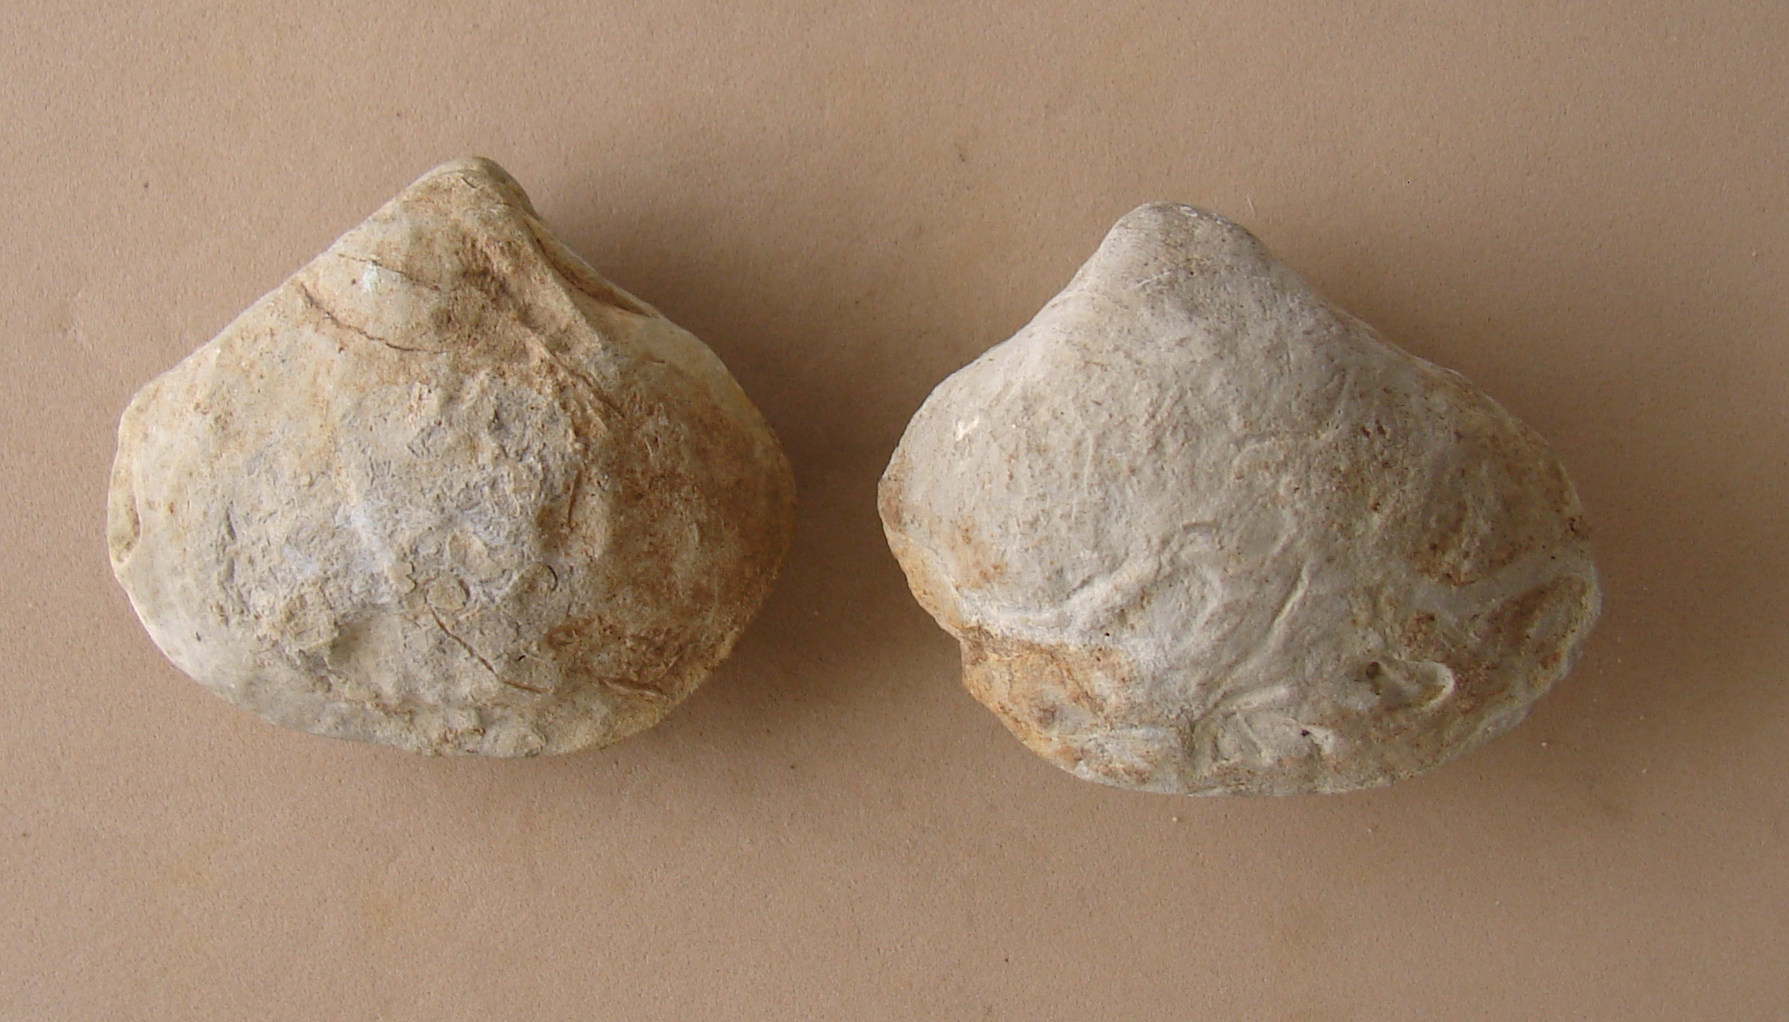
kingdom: Animalia
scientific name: Animalia
